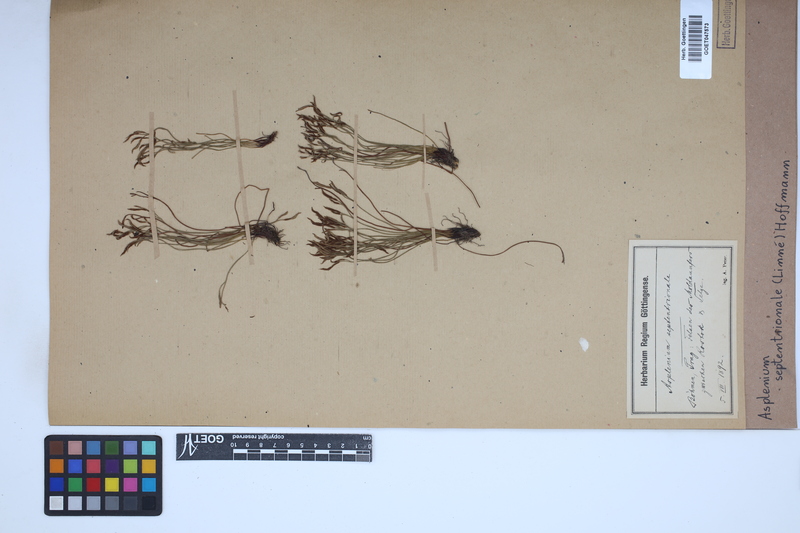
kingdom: Plantae
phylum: Tracheophyta
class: Polypodiopsida
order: Polypodiales
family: Aspleniaceae
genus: Asplenium
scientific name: Asplenium septentrionale
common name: Forked spleenwort
